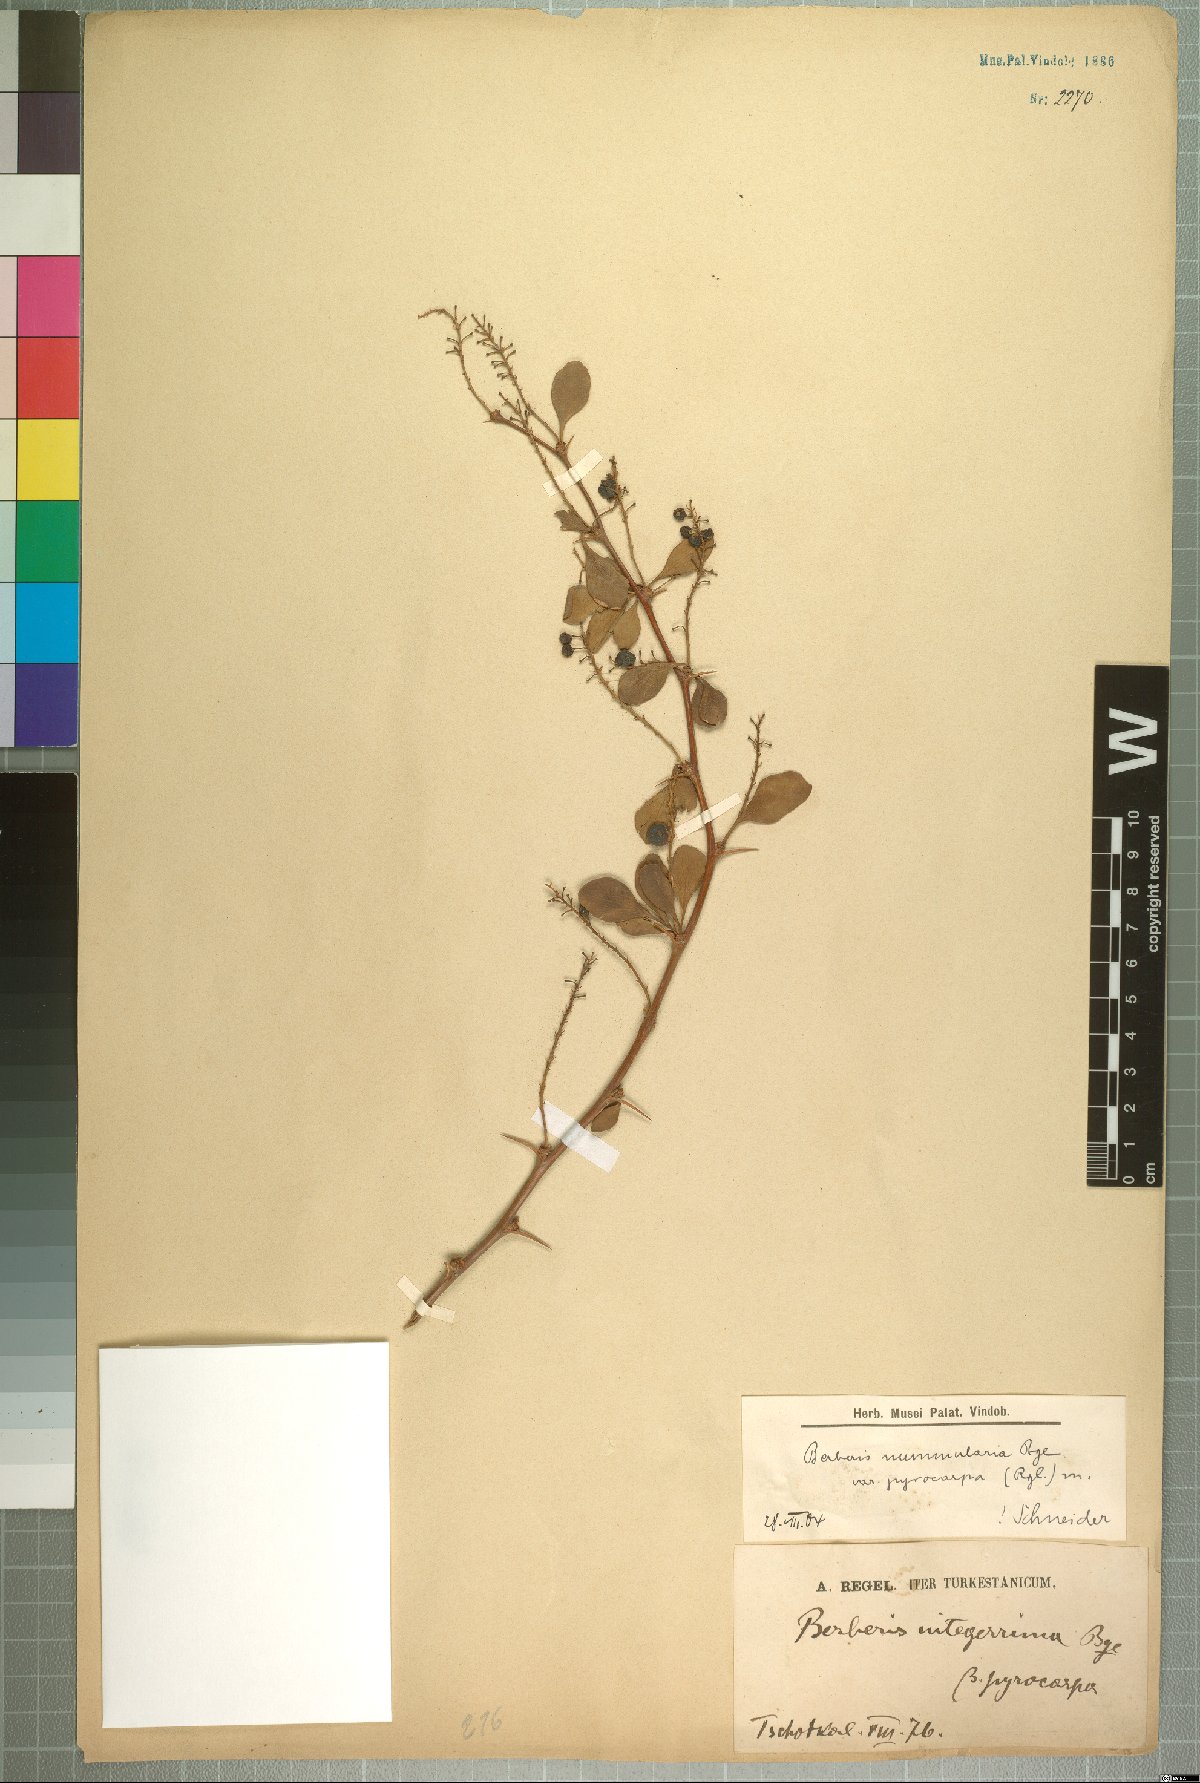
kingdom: Plantae
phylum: Tracheophyta
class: Magnoliopsida
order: Ranunculales
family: Berberidaceae
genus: Berberis
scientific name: Berberis nummularia
